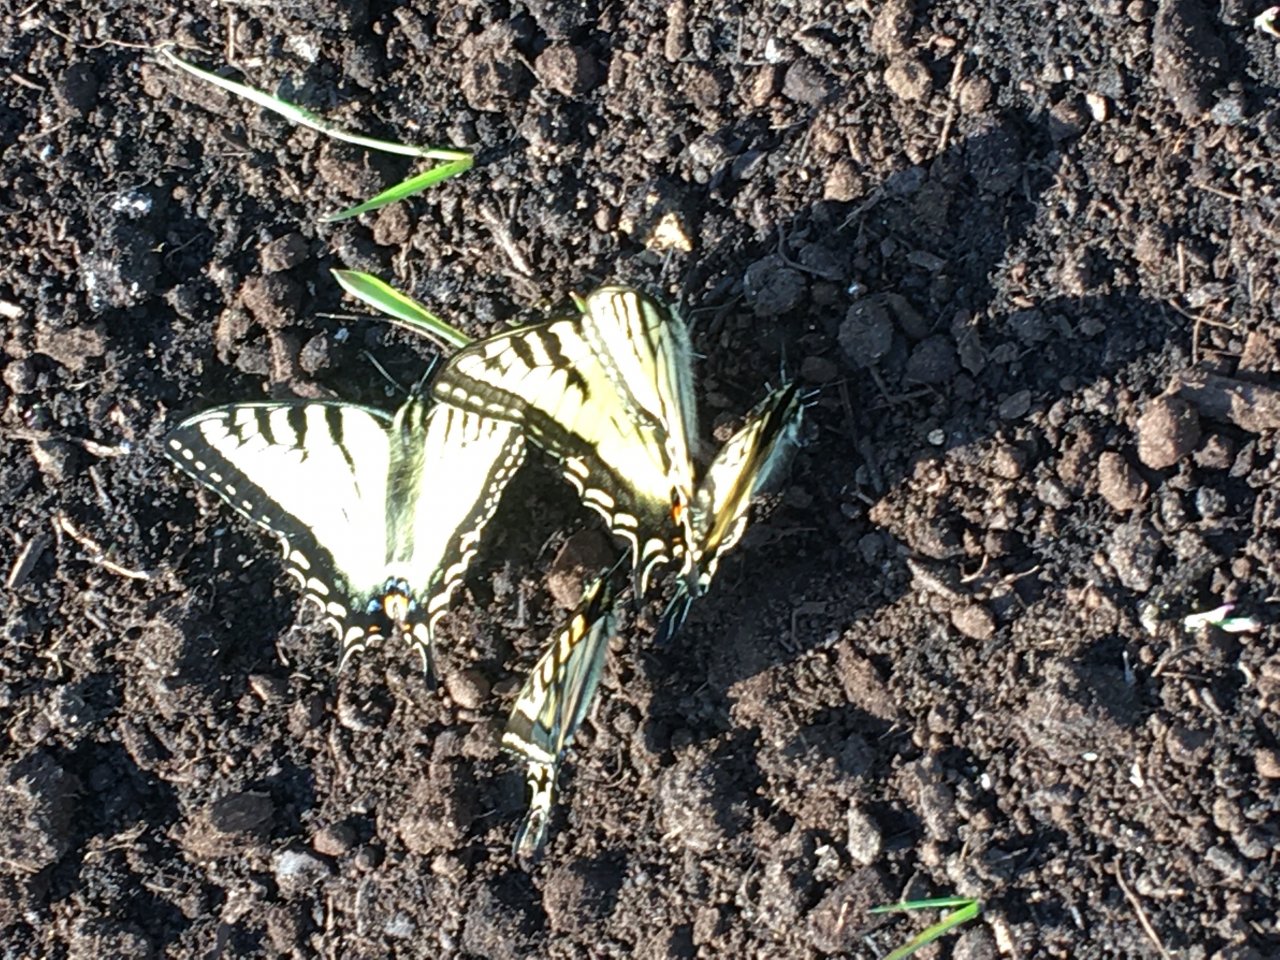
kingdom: Animalia
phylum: Arthropoda
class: Insecta
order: Lepidoptera
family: Papilionidae
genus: Pterourus
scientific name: Pterourus canadensis
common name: Canadian Tiger Swallowtail
